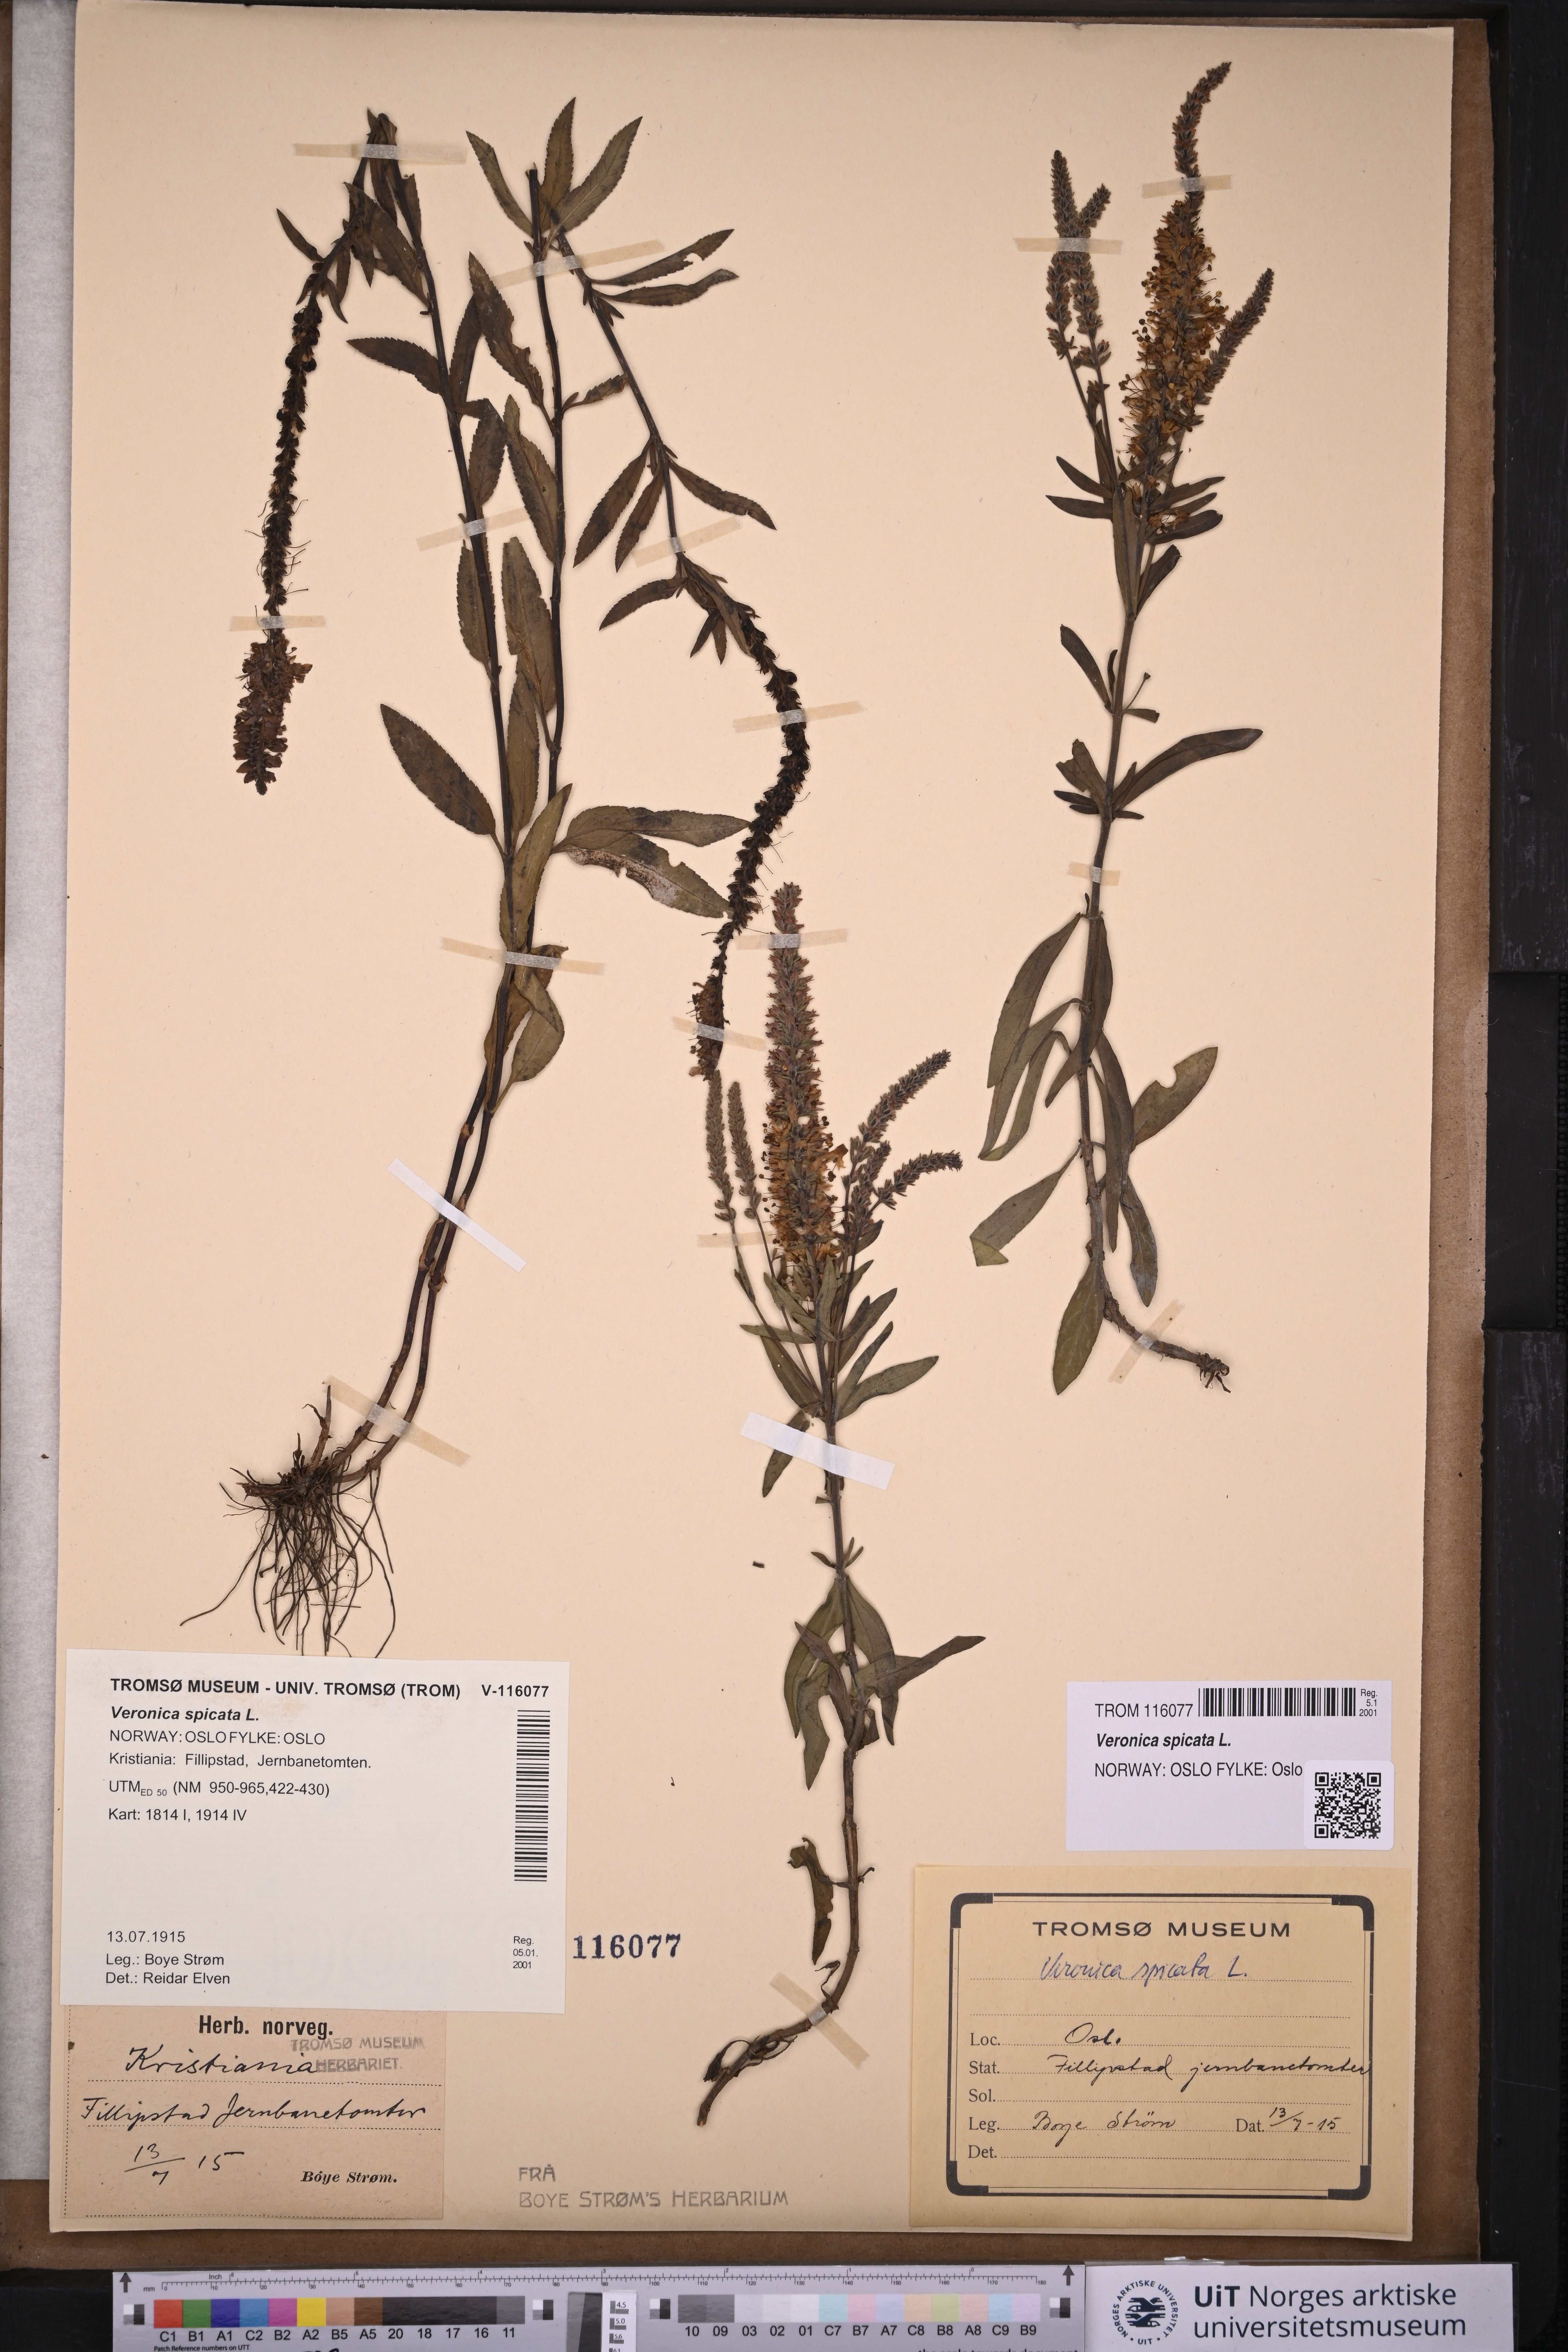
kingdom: Plantae
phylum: Tracheophyta
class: Magnoliopsida
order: Lamiales
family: Plantaginaceae
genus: Veronica
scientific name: Veronica spicata
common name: Spiked speedwell
